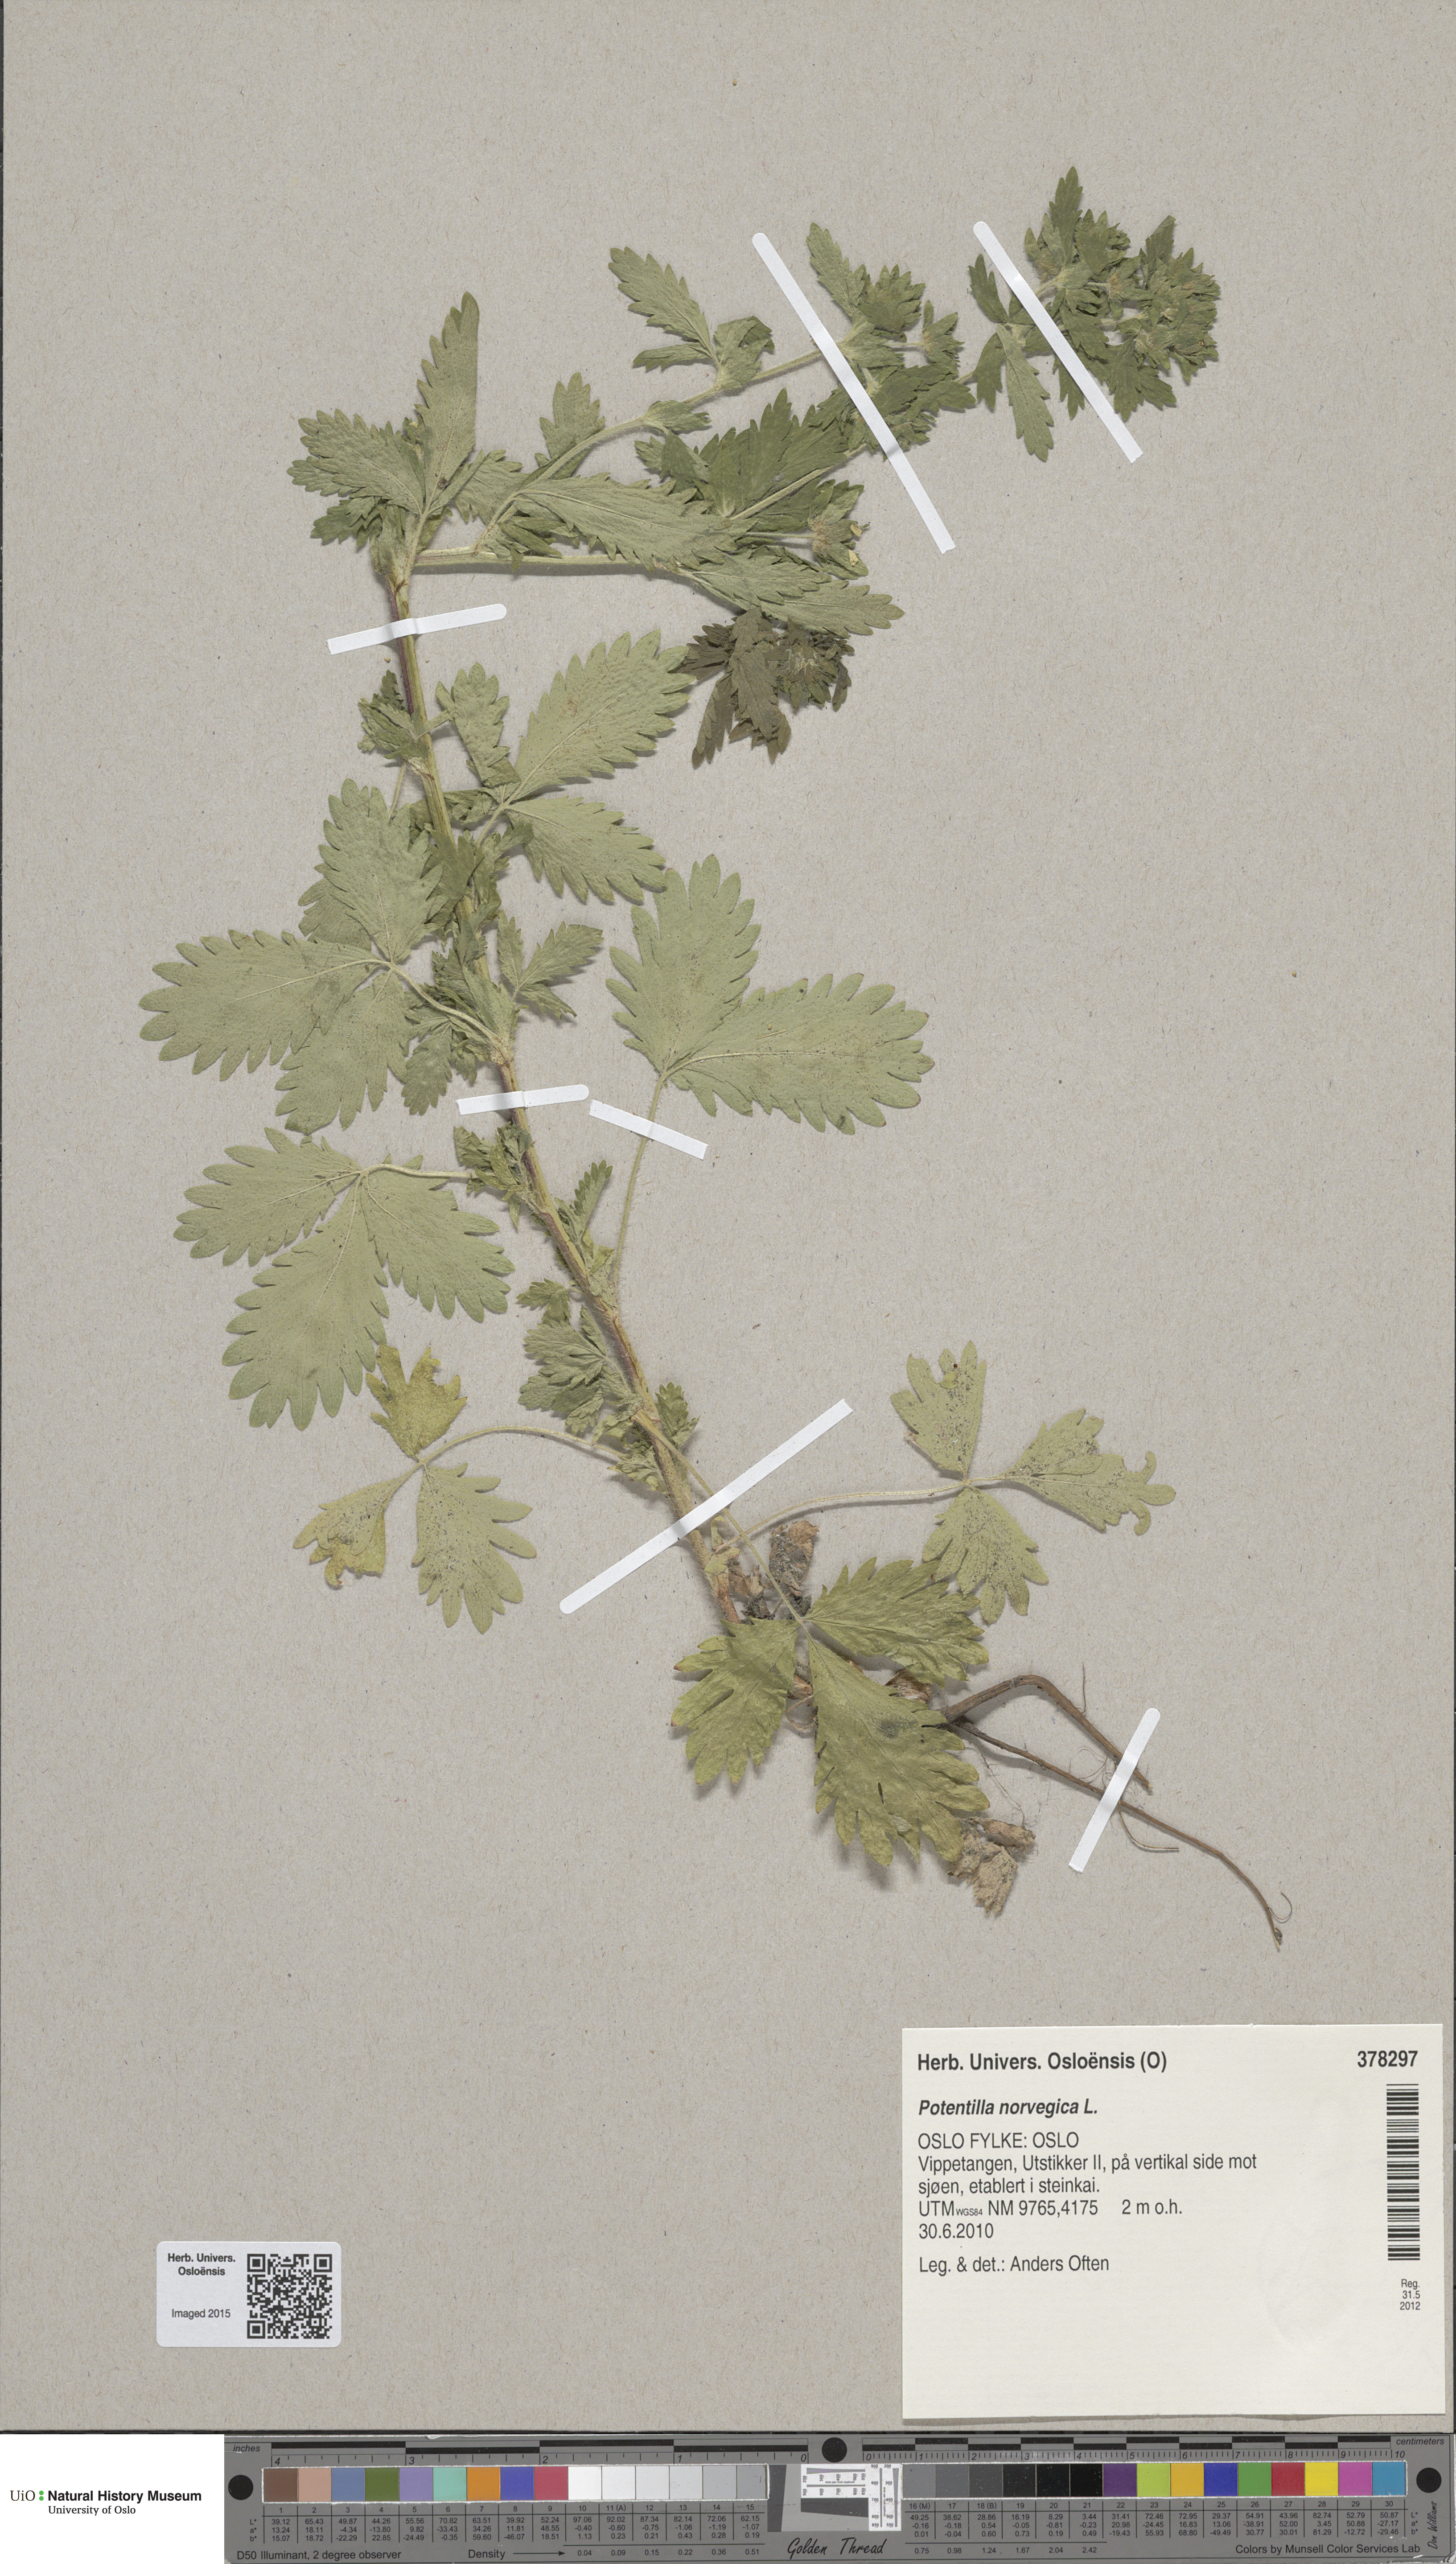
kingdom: Plantae
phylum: Tracheophyta
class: Magnoliopsida
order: Rosales
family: Rosaceae
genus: Potentilla
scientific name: Potentilla norvegica
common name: Ternate-leaved cinquefoil
